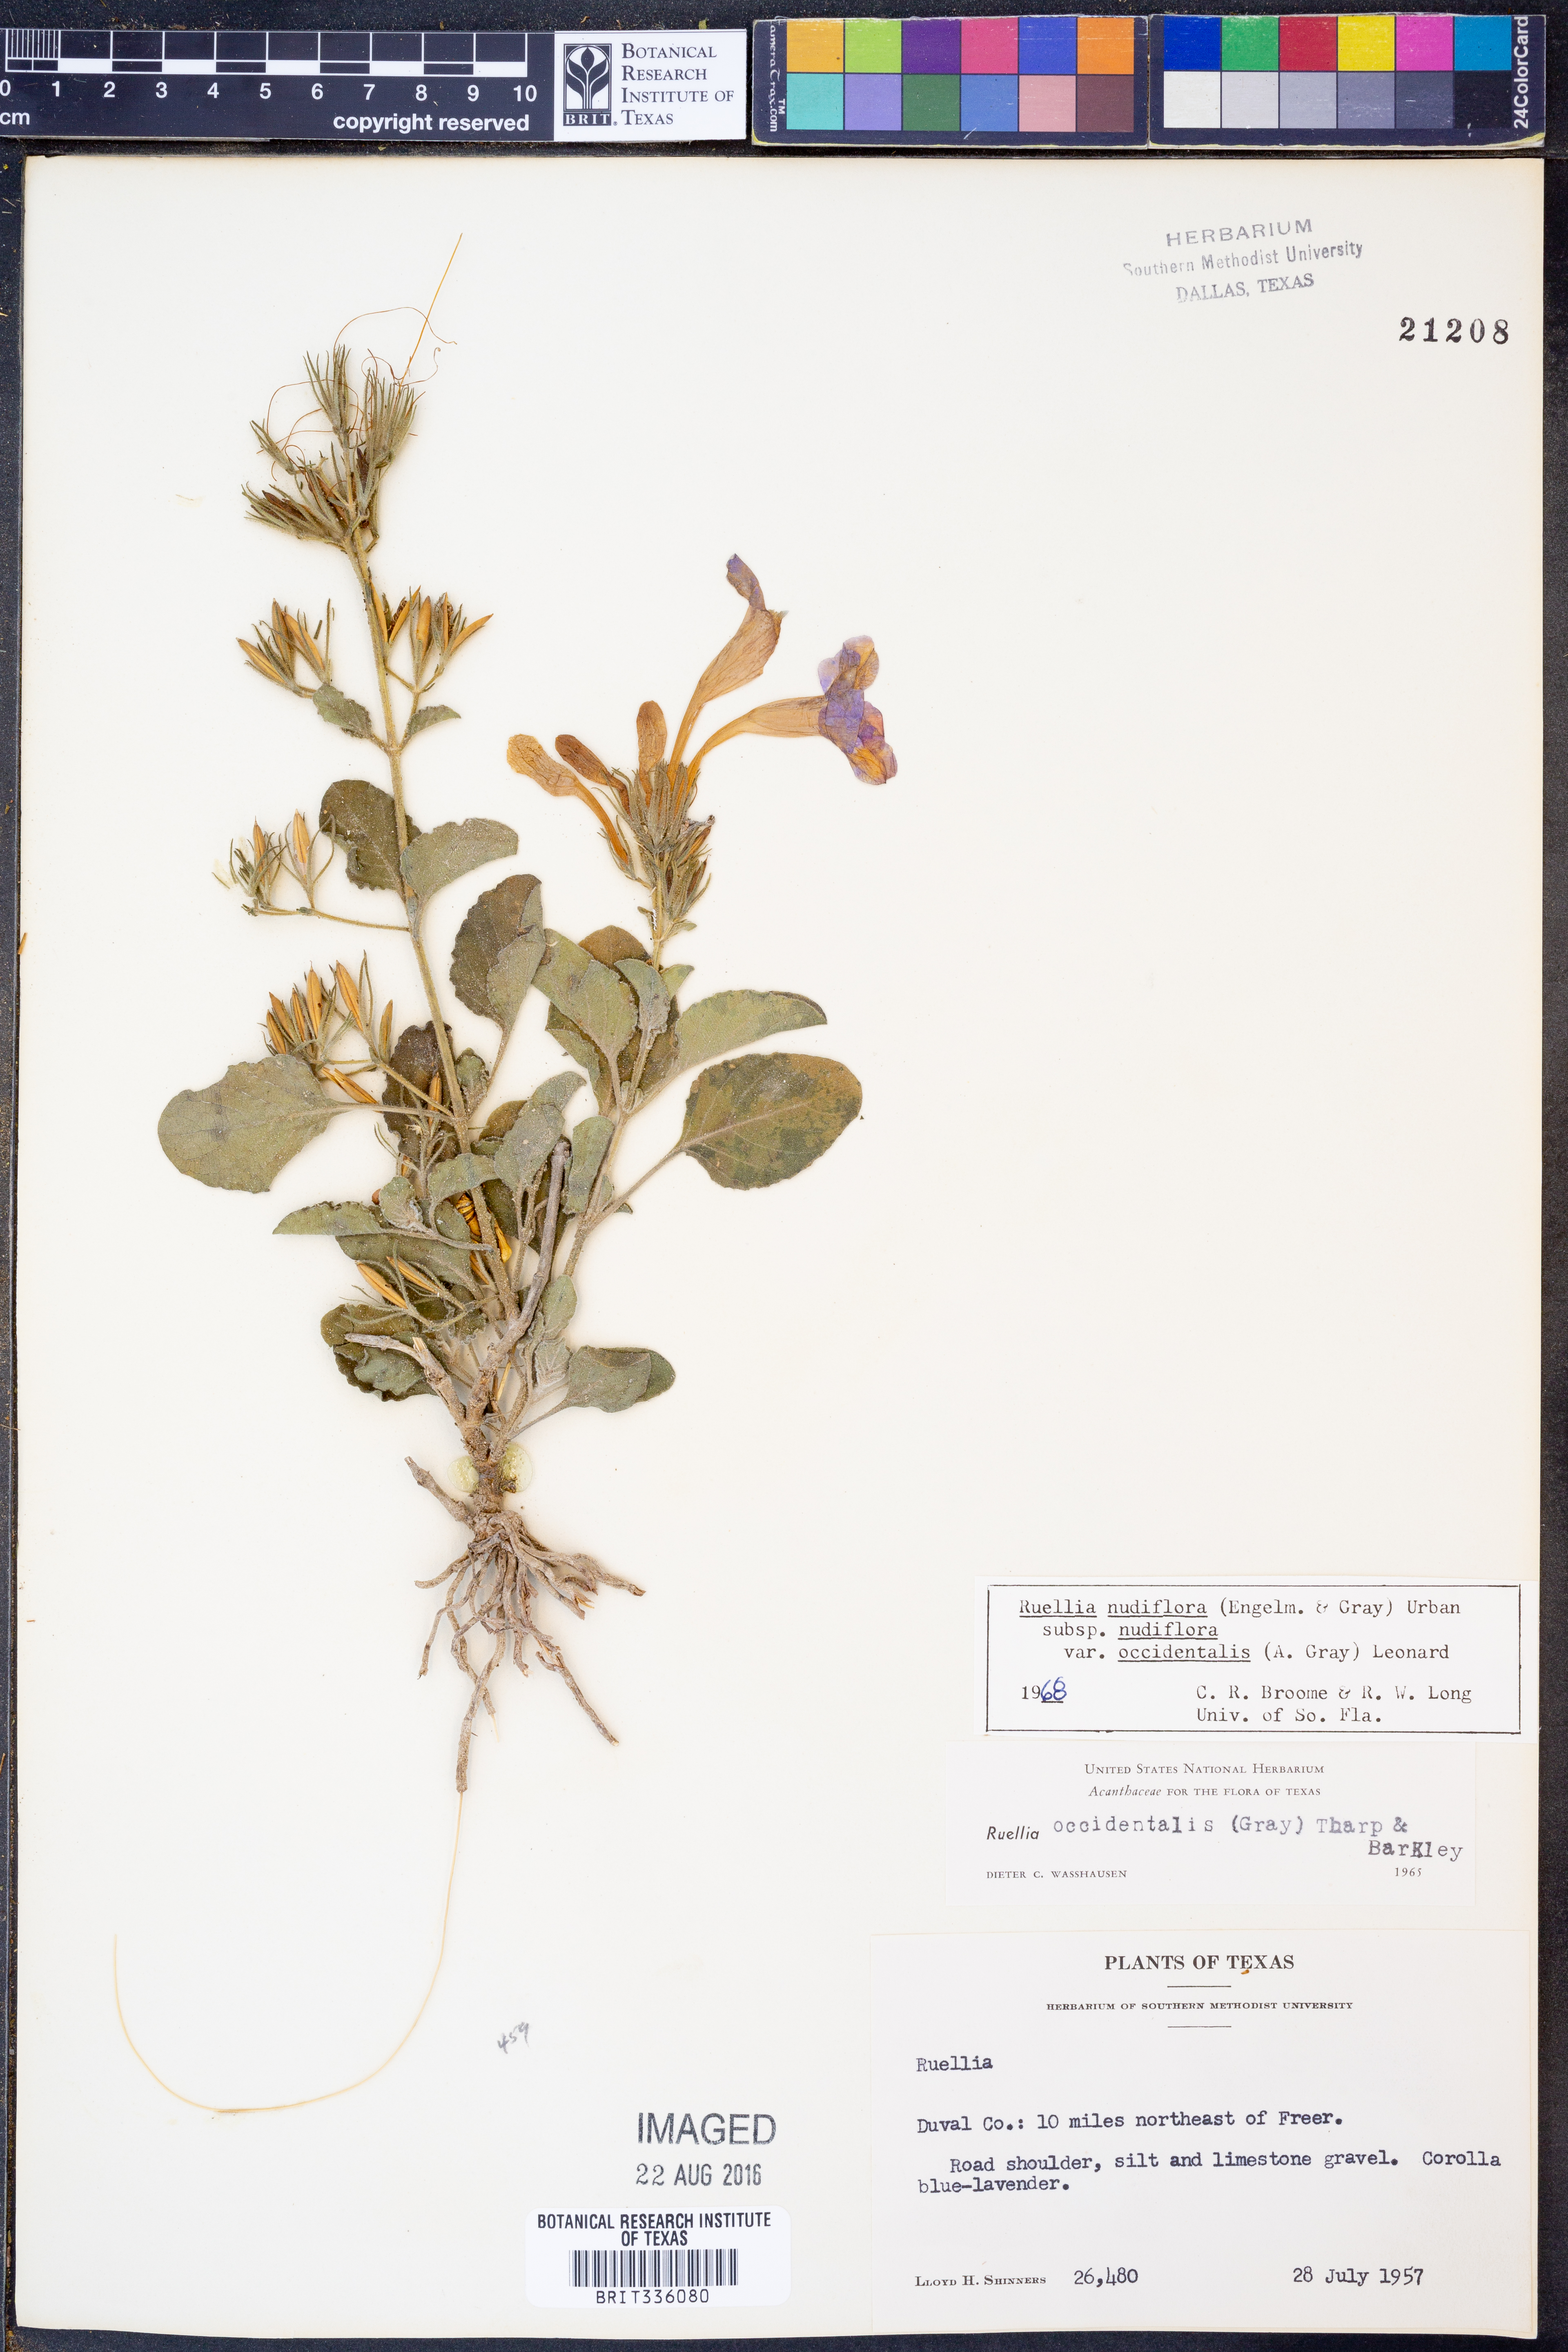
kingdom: Plantae
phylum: Tracheophyta
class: Magnoliopsida
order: Lamiales
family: Acanthaceae
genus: Ruellia
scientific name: Ruellia ciliatiflora
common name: Hairyflower wild petunia
